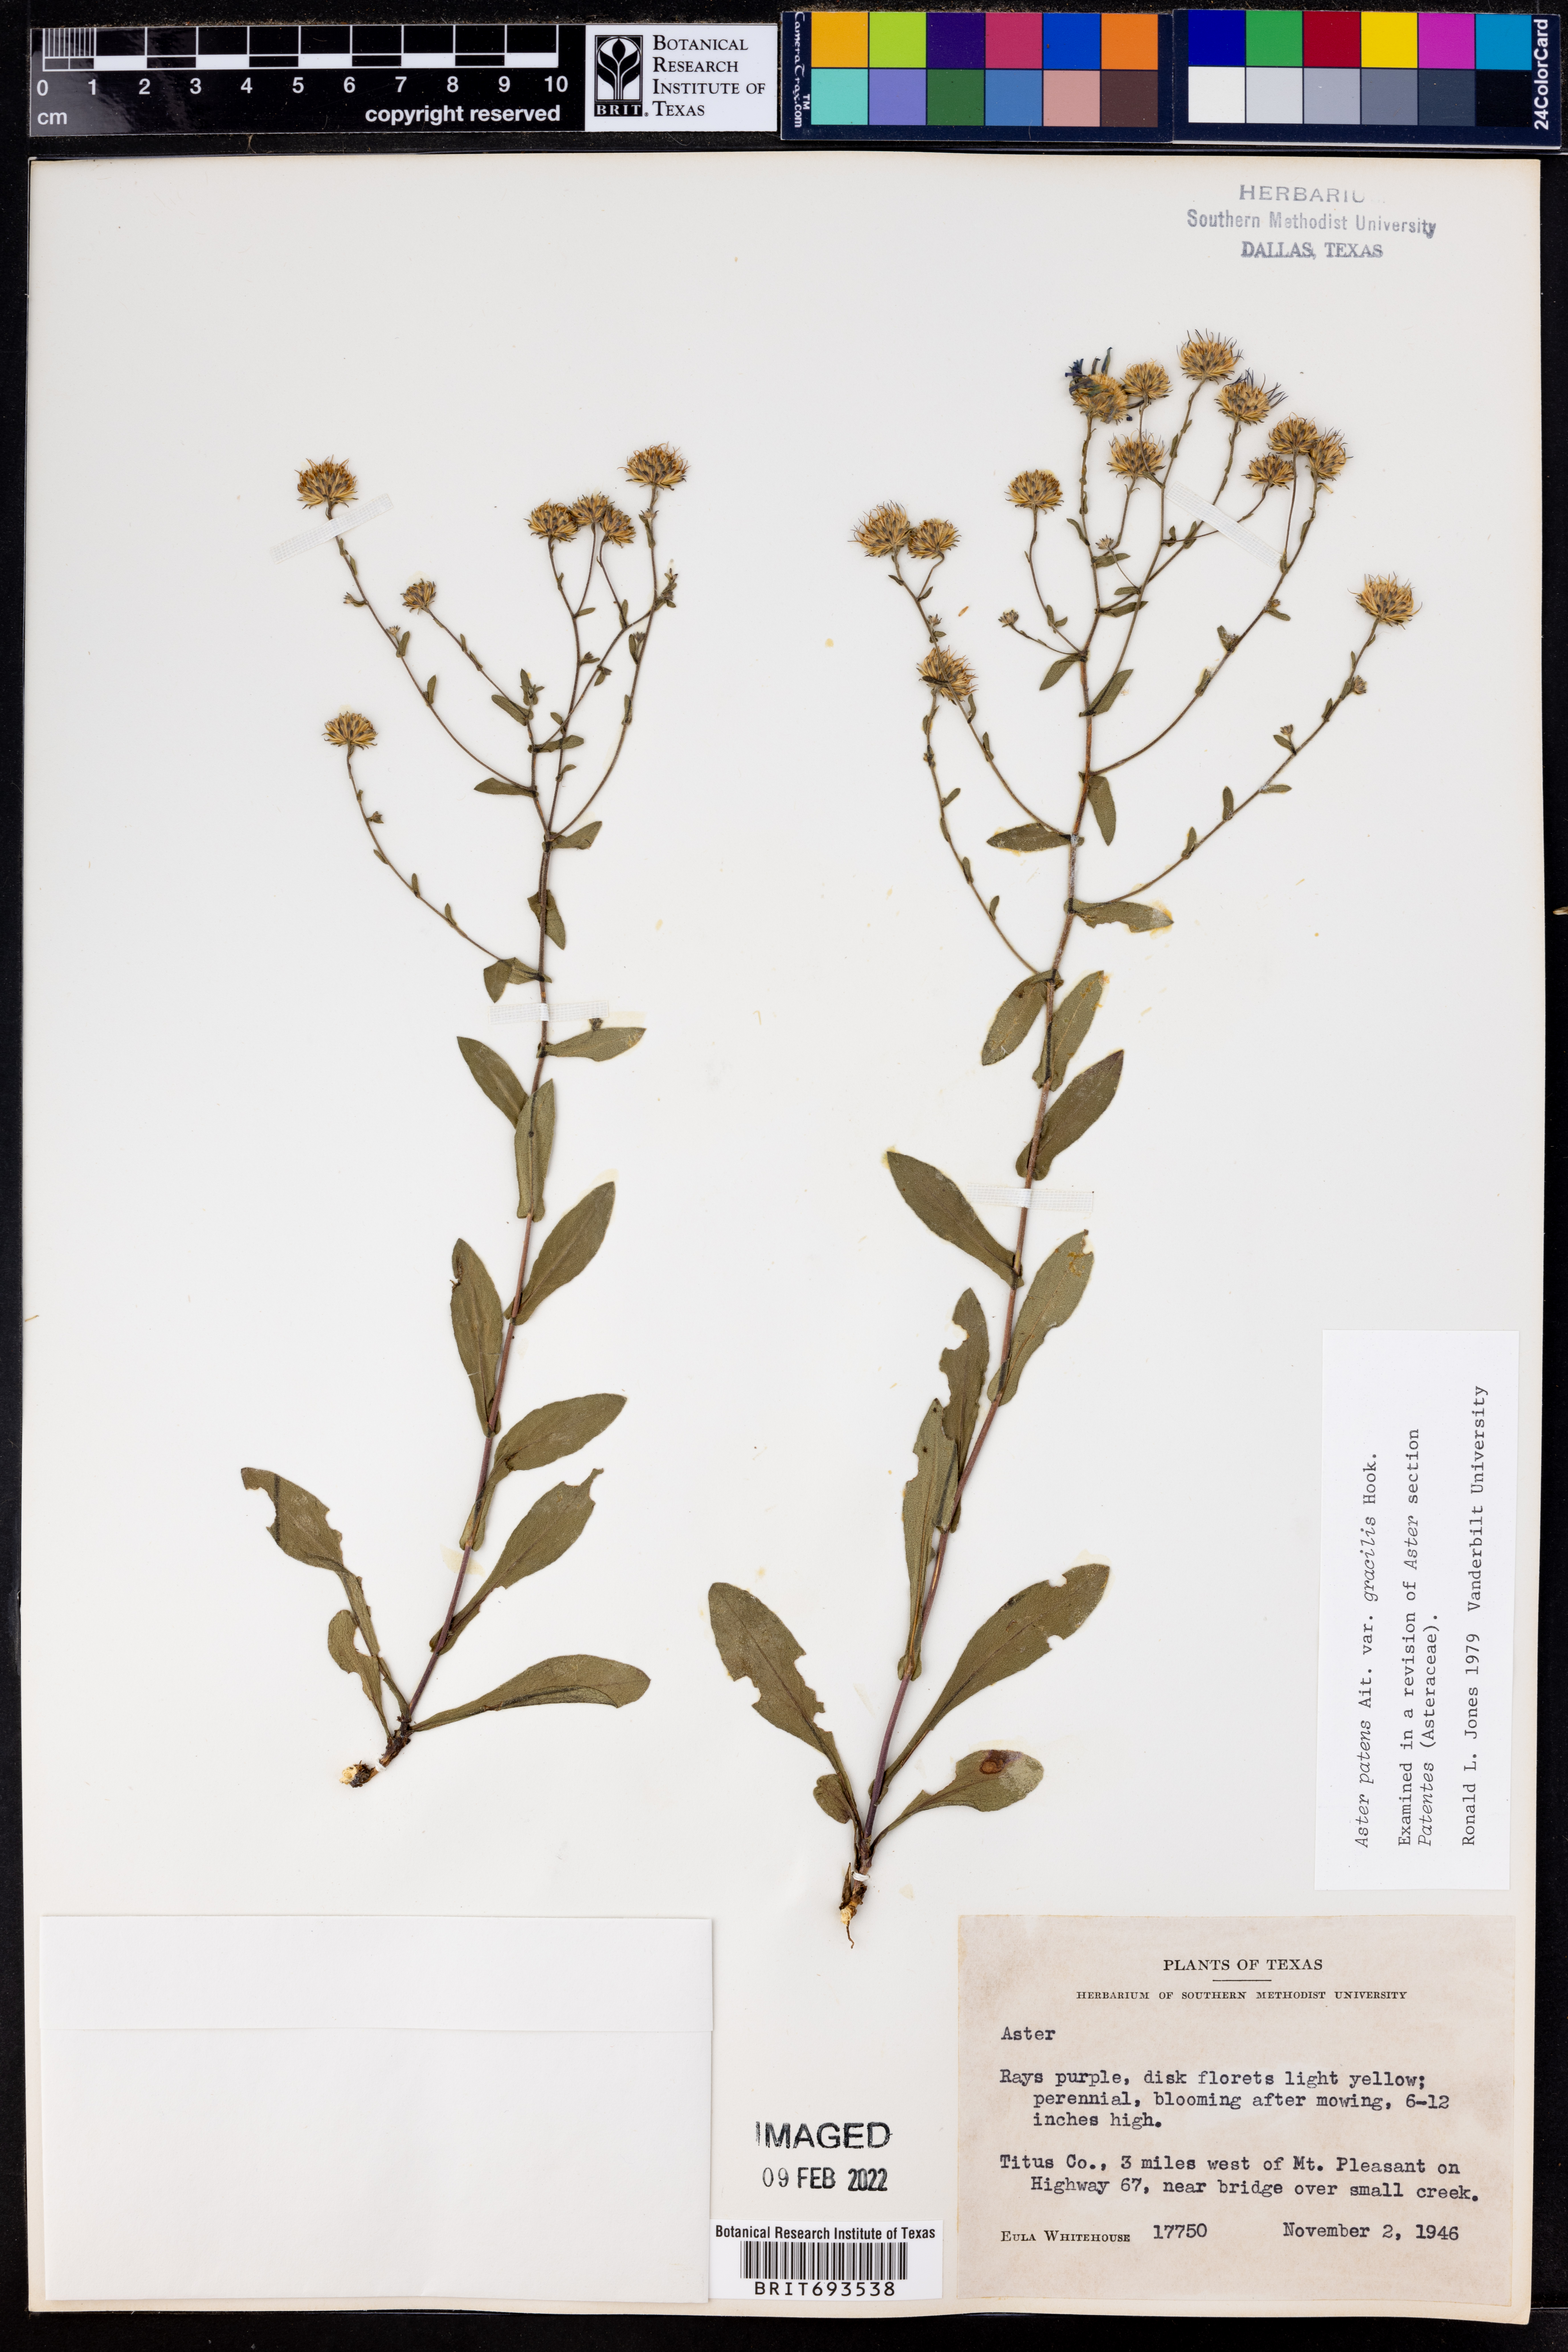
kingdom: Plantae
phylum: Tracheophyta
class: Magnoliopsida
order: Asterales
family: Asteraceae
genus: Symphyotrichum
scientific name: Symphyotrichum patens
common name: Late purple aster
